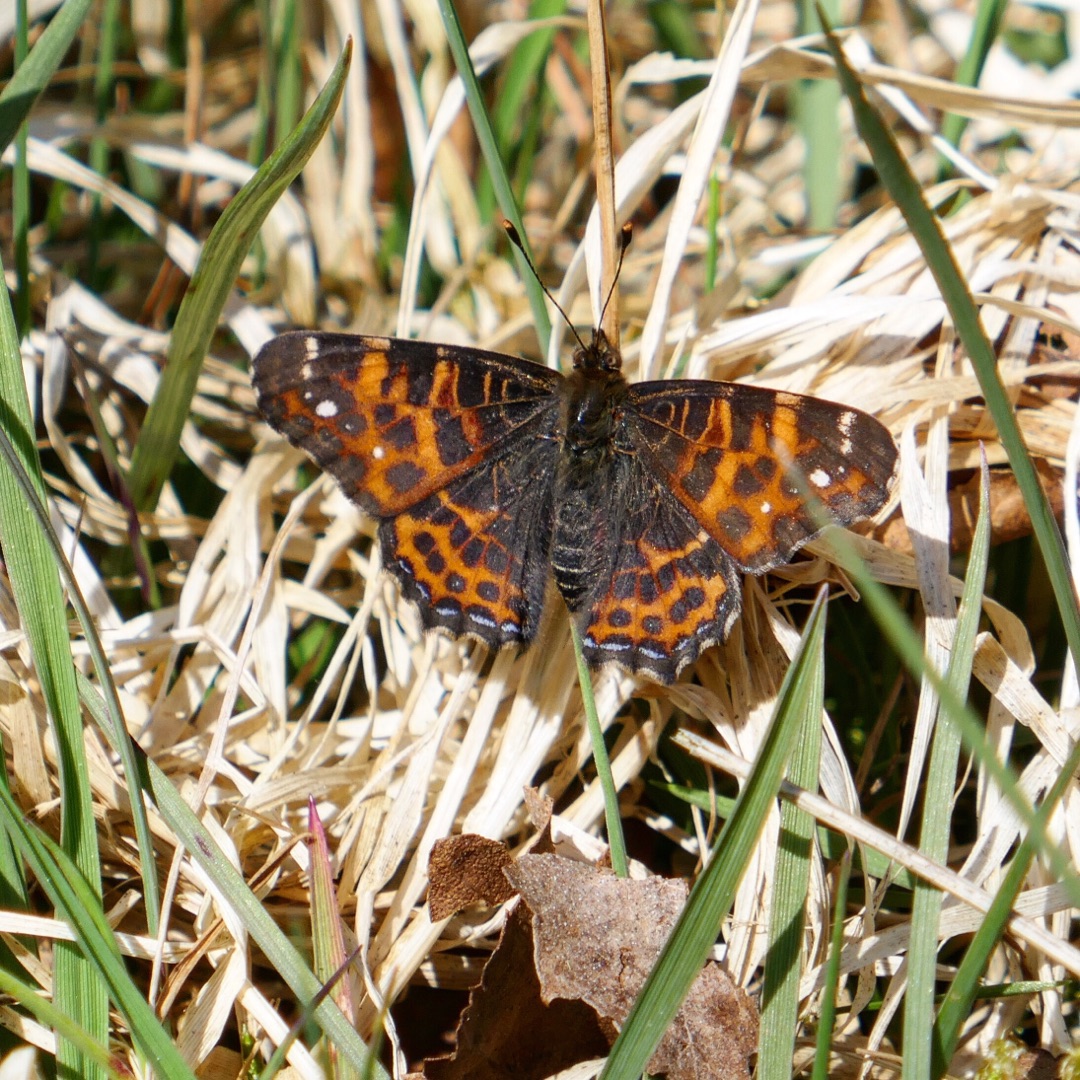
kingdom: Animalia
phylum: Arthropoda
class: Insecta
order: Lepidoptera
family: Nymphalidae
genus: Araschnia
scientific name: Araschnia levana
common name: Nældesommerfugl
